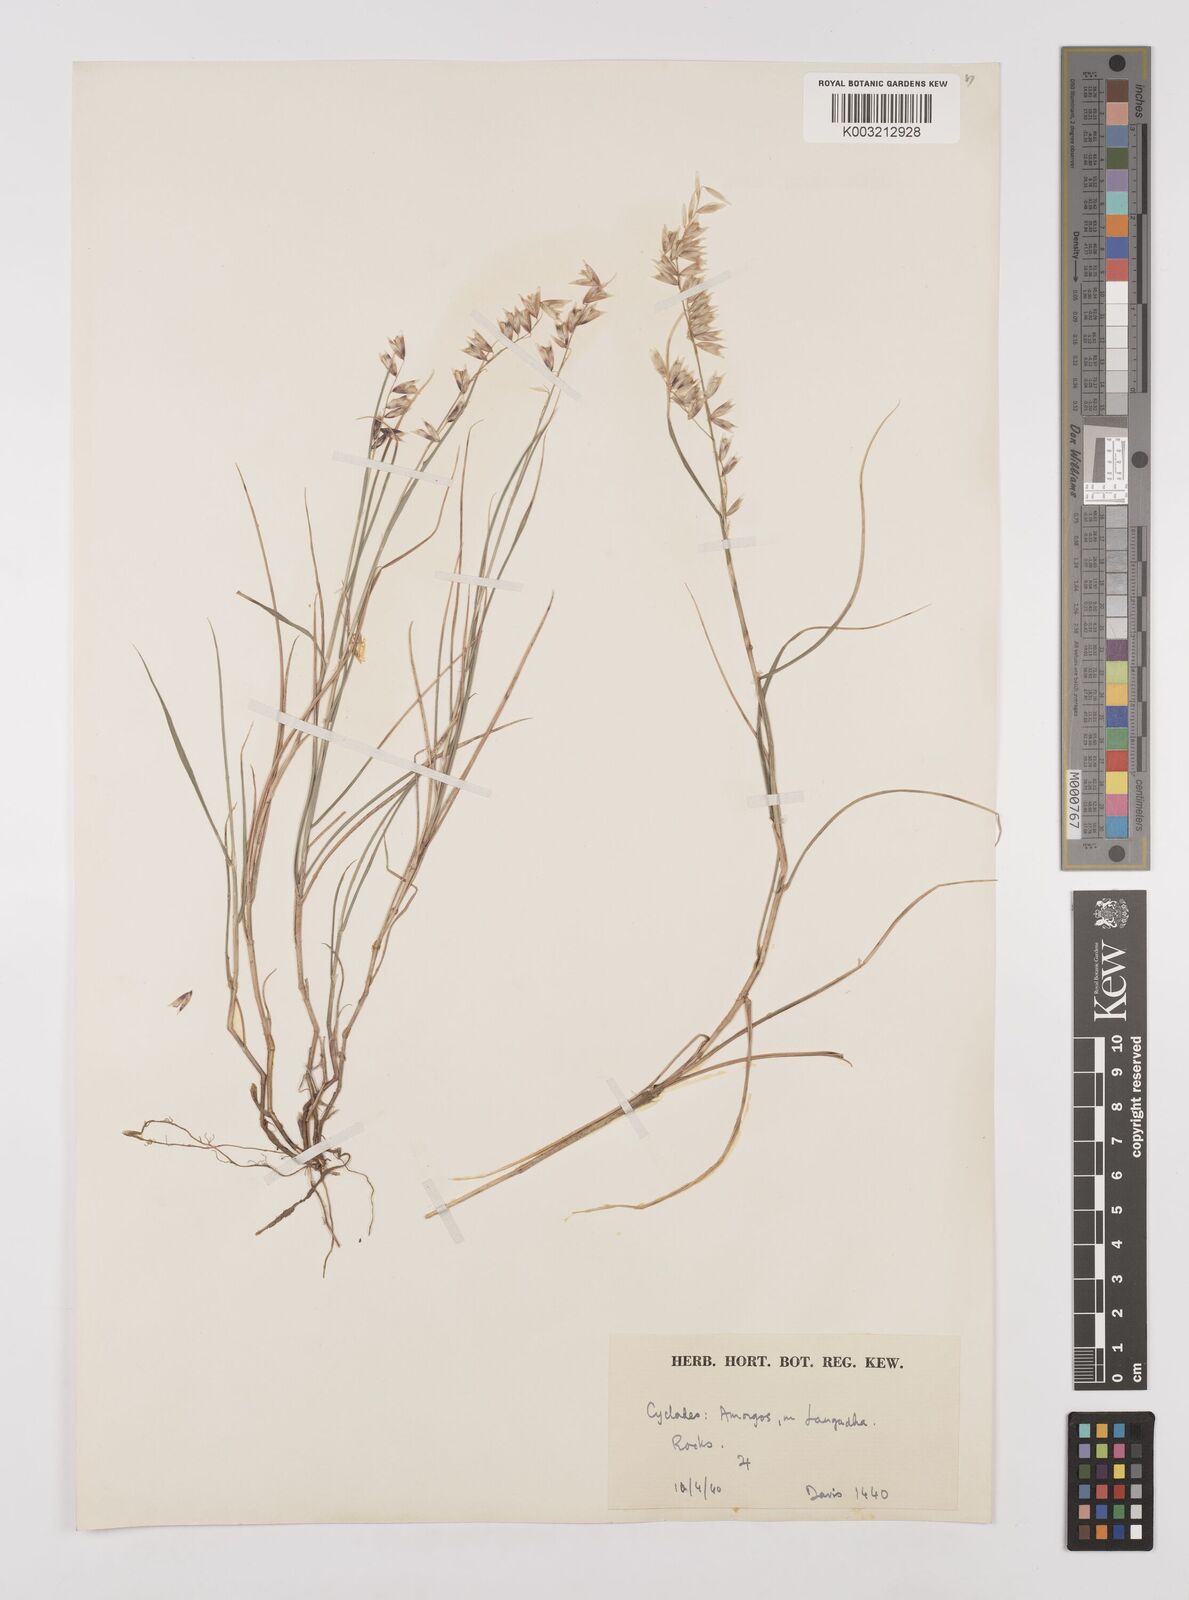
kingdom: Plantae
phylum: Tracheophyta
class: Liliopsida
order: Poales
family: Poaceae
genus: Melica
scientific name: Melica minuta
